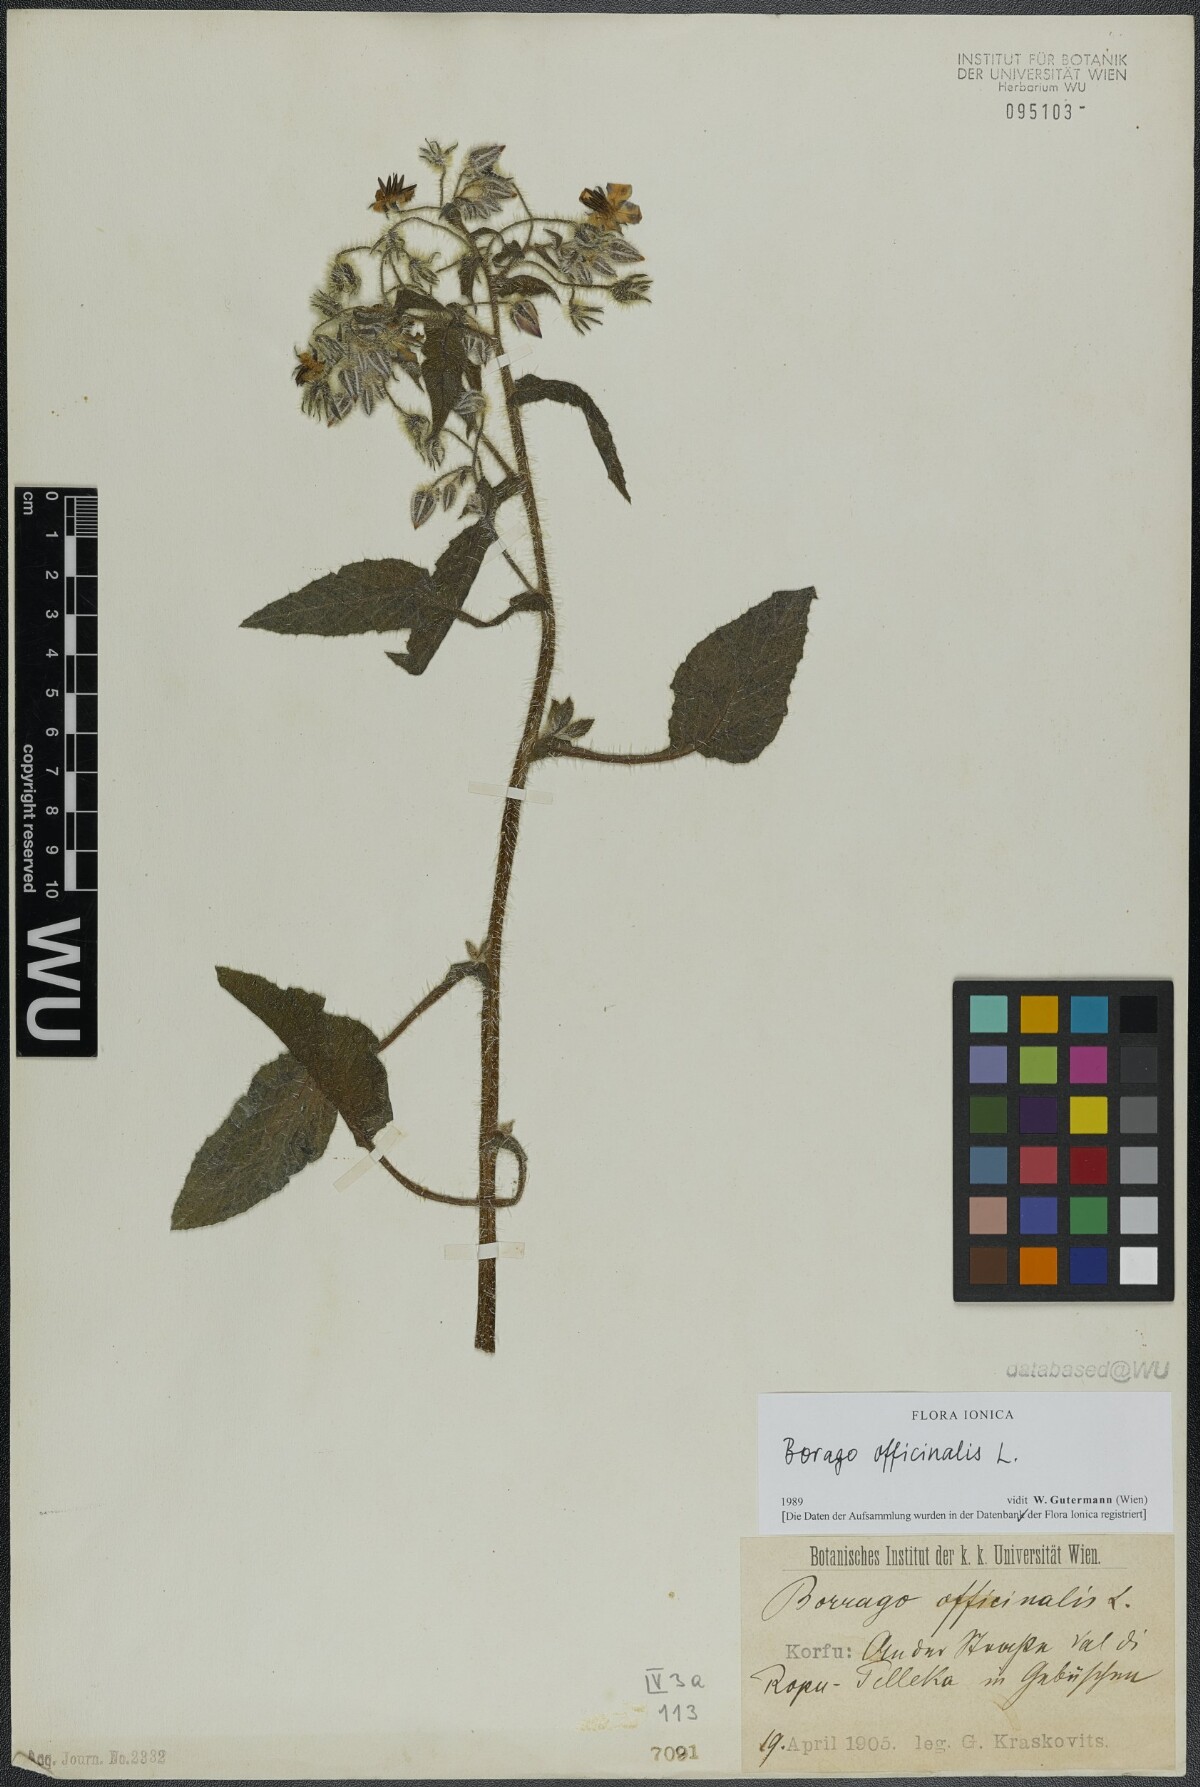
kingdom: Plantae
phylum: Tracheophyta
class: Magnoliopsida
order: Boraginales
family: Boraginaceae
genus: Borago
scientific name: Borago officinalis
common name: Borage
